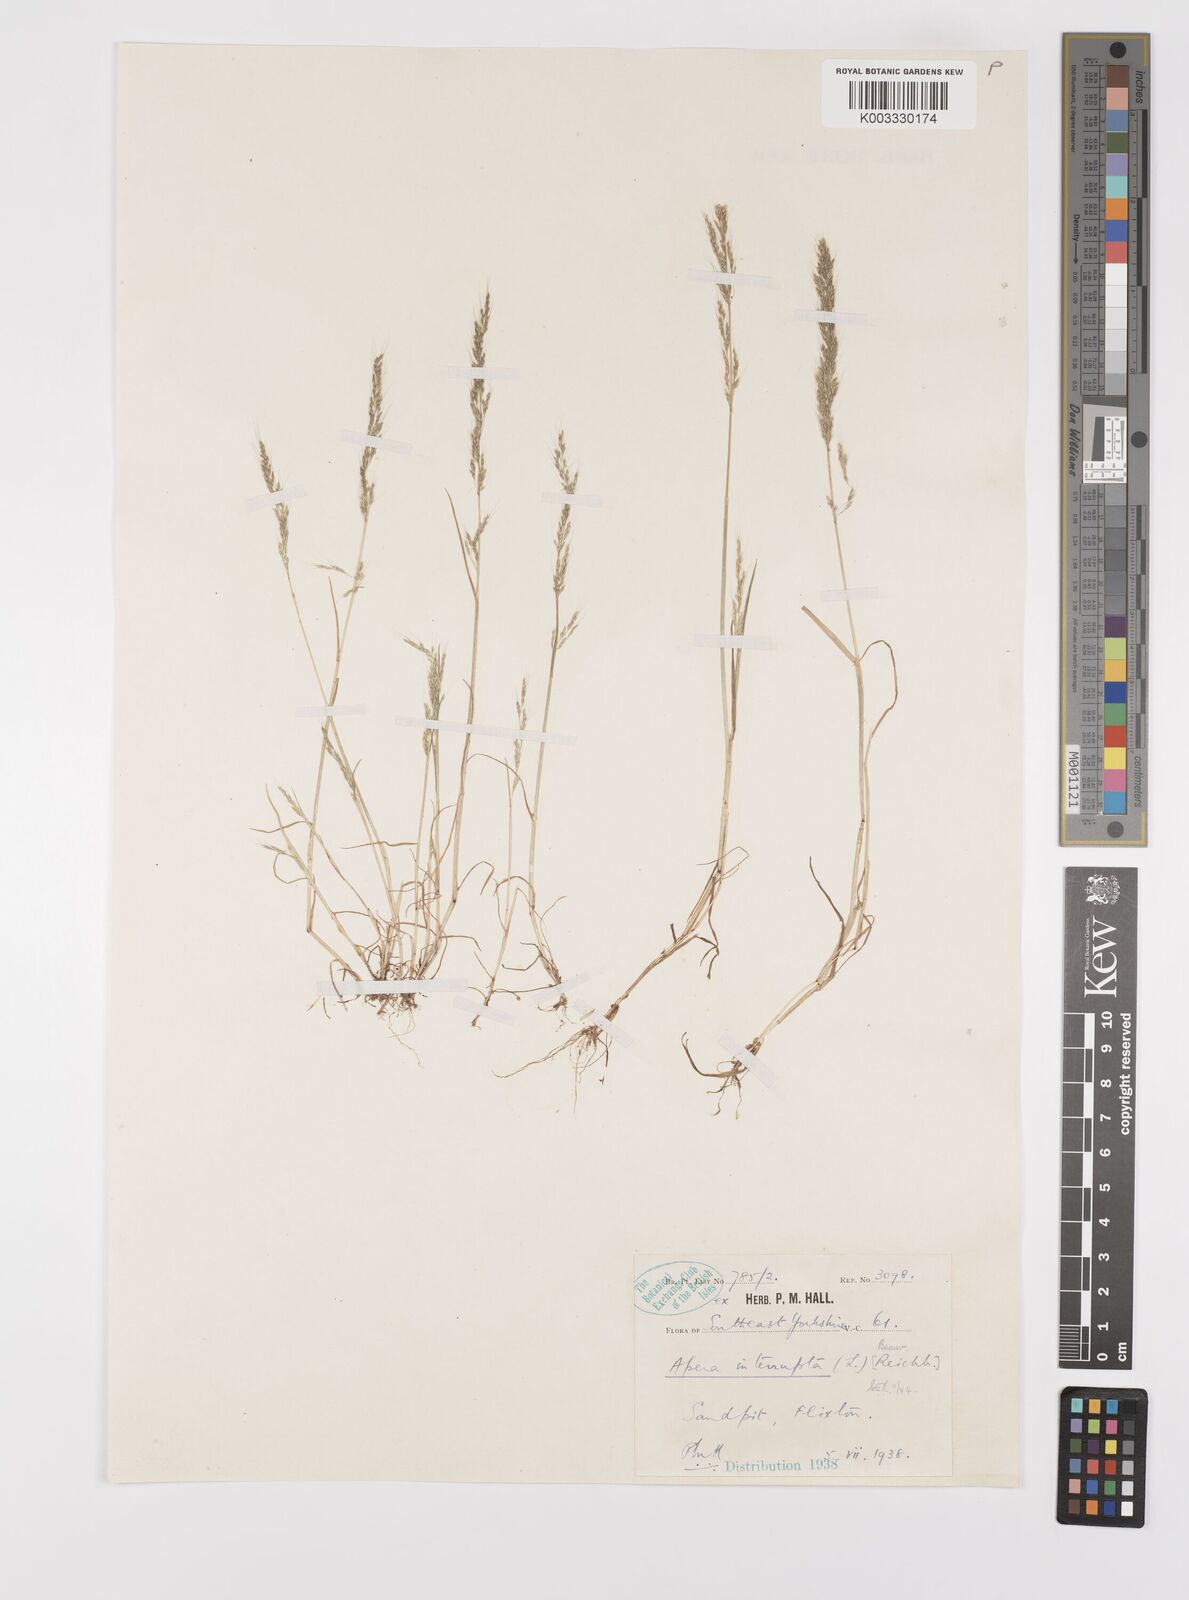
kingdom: Plantae
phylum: Tracheophyta
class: Liliopsida
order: Poales
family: Poaceae
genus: Apera
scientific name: Apera interrupta
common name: Dense silky-bent
